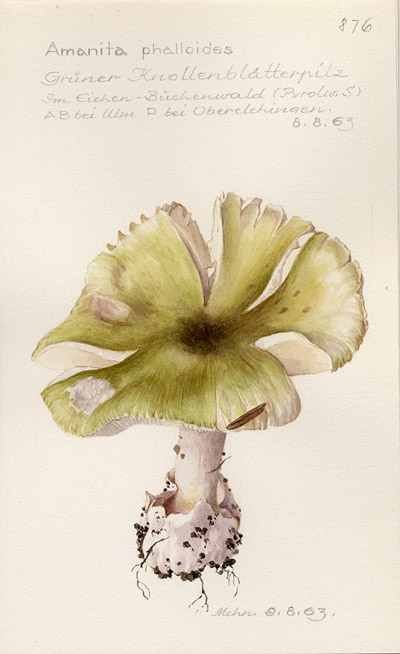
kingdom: Fungi
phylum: Basidiomycota
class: Agaricomycetes
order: Agaricales
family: Amanitaceae
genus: Amanita
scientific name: Amanita phalloides
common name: Death cap
